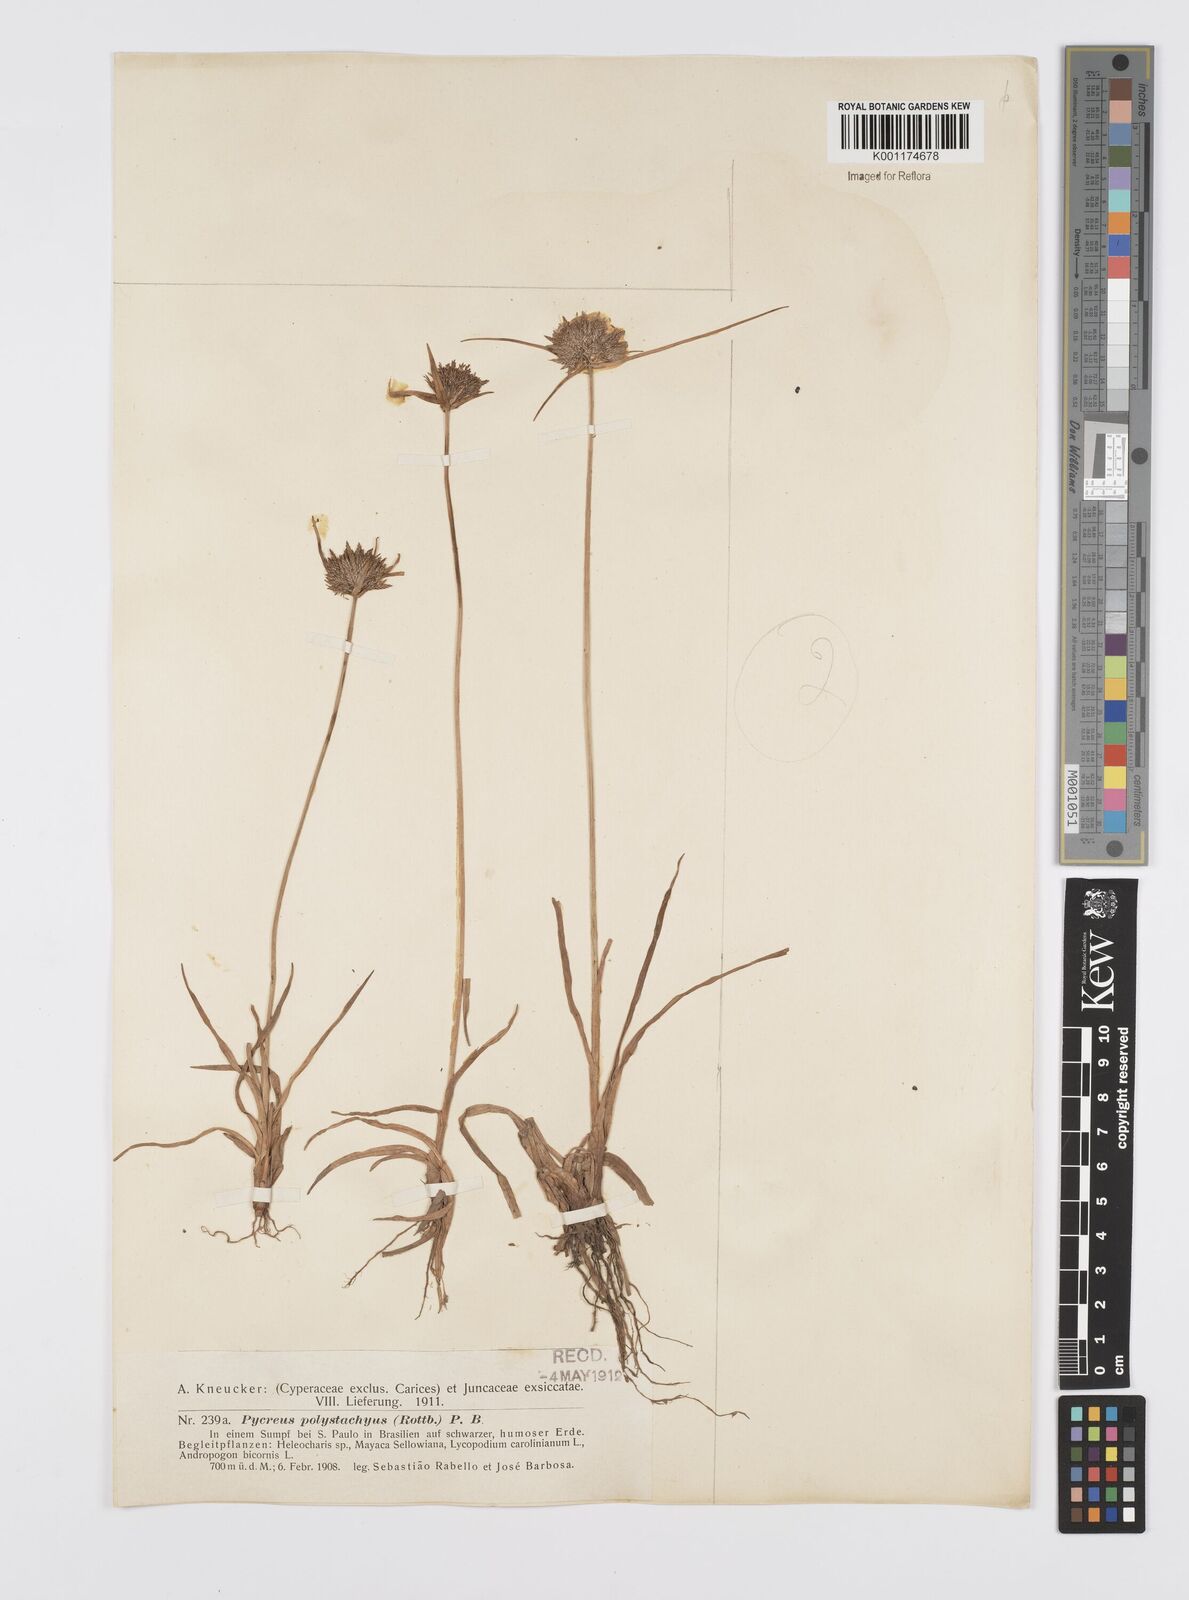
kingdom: Plantae
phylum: Tracheophyta
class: Liliopsida
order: Poales
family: Cyperaceae
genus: Cyperus
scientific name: Cyperus polystachyos
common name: Bunchy flat sedge
